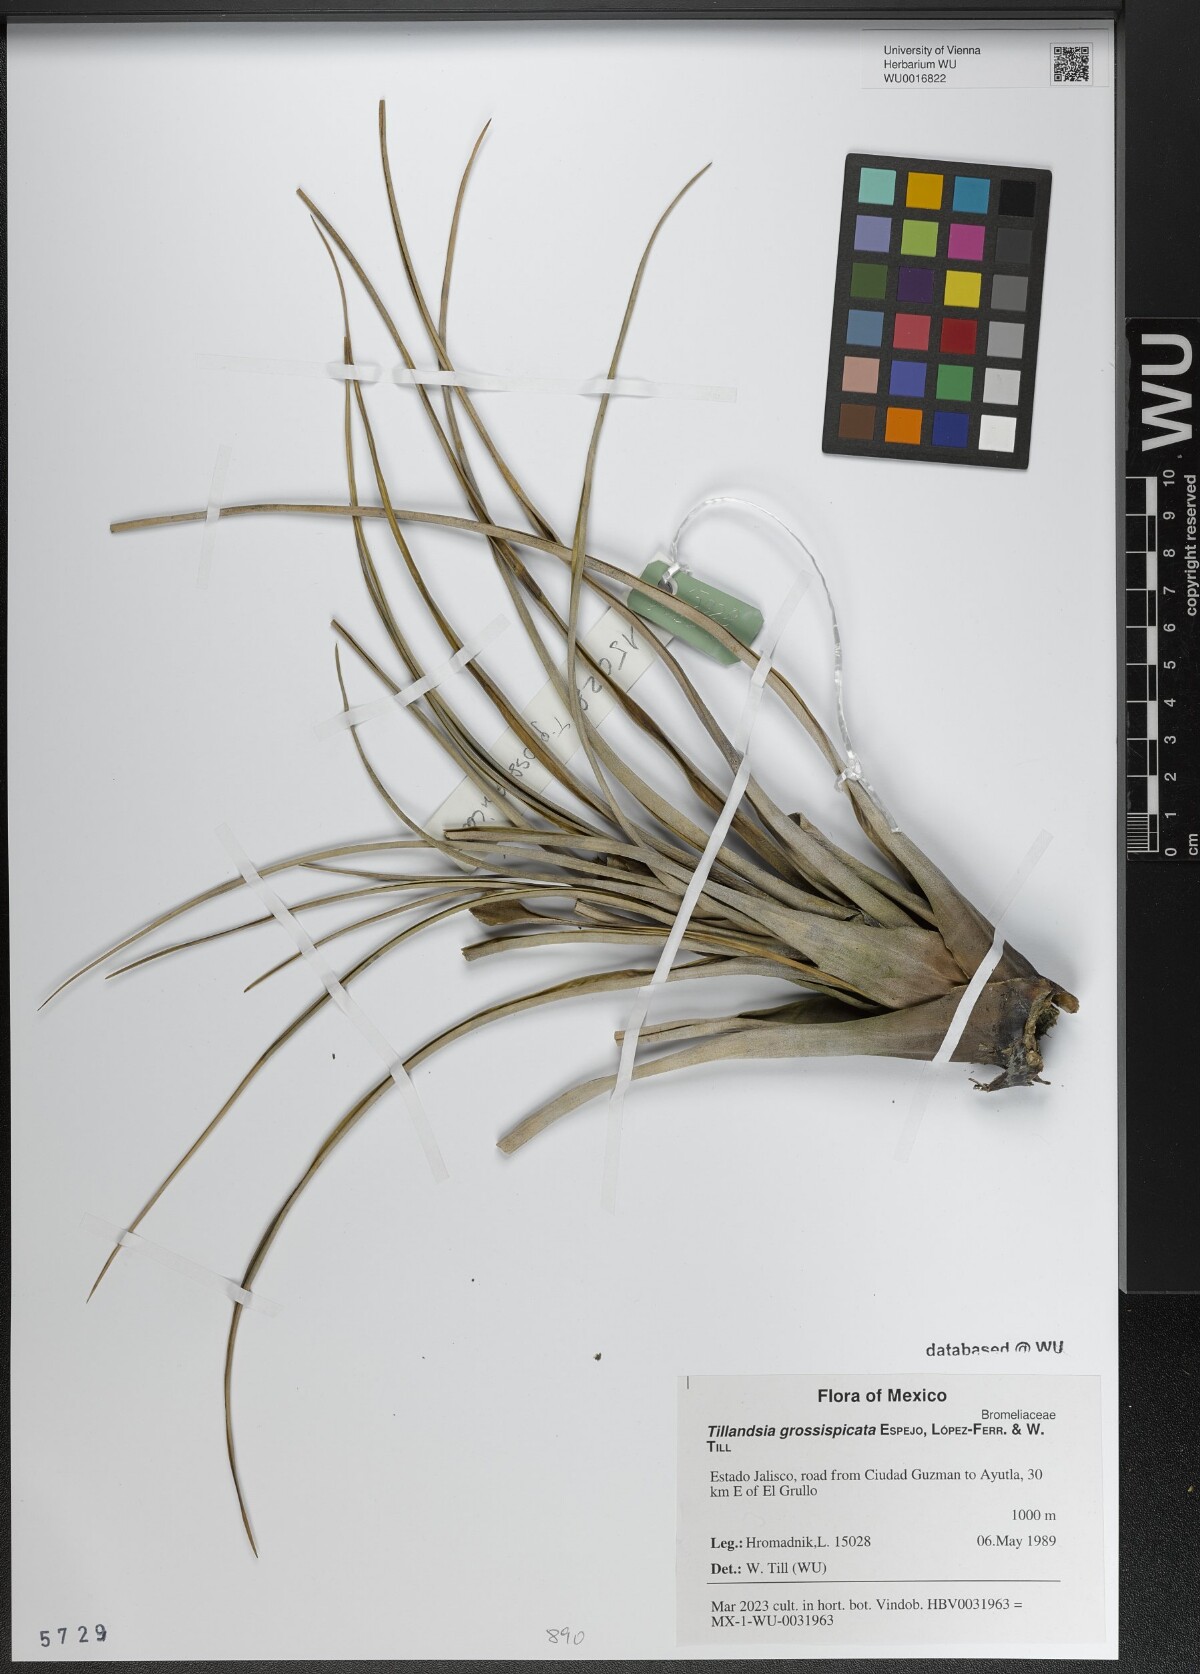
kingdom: Plantae
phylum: Tracheophyta
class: Liliopsida
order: Poales
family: Bromeliaceae
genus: Tillandsia
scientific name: Tillandsia grossispicata
